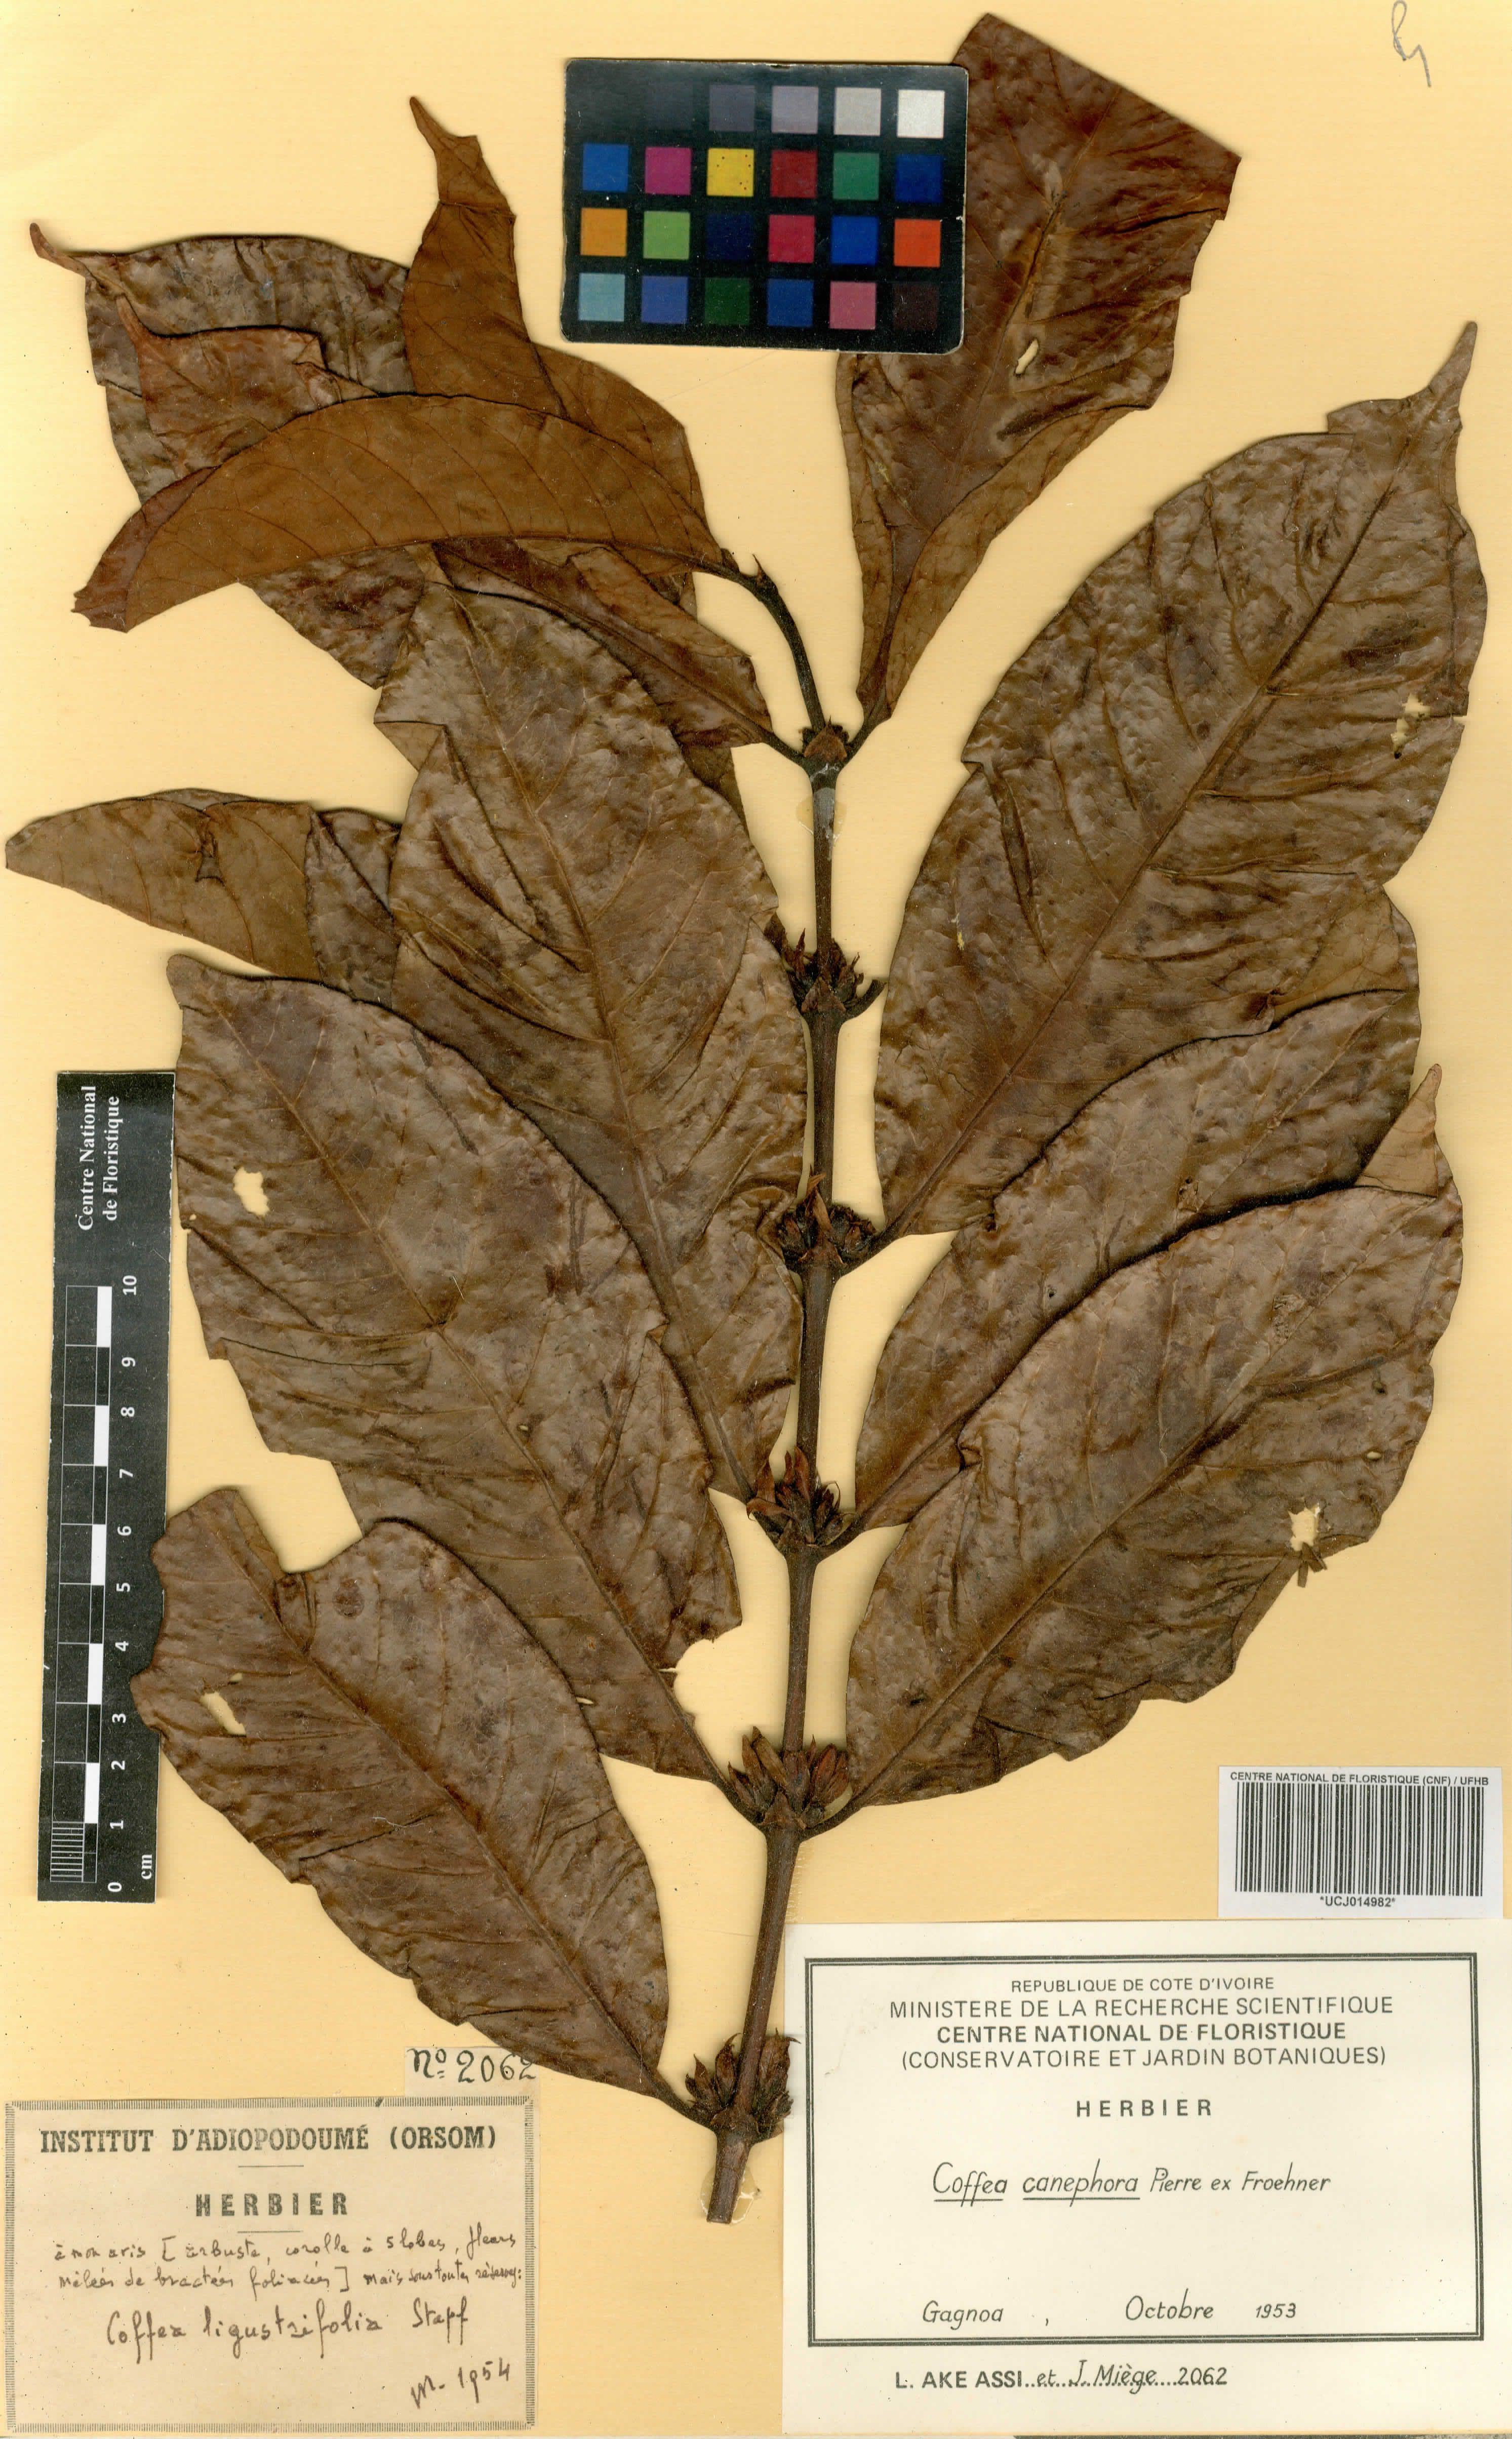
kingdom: Plantae
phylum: Tracheophyta
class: Magnoliopsida
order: Gentianales
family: Rubiaceae
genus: Coffea
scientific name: Coffea canephora
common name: Robusta coffee
